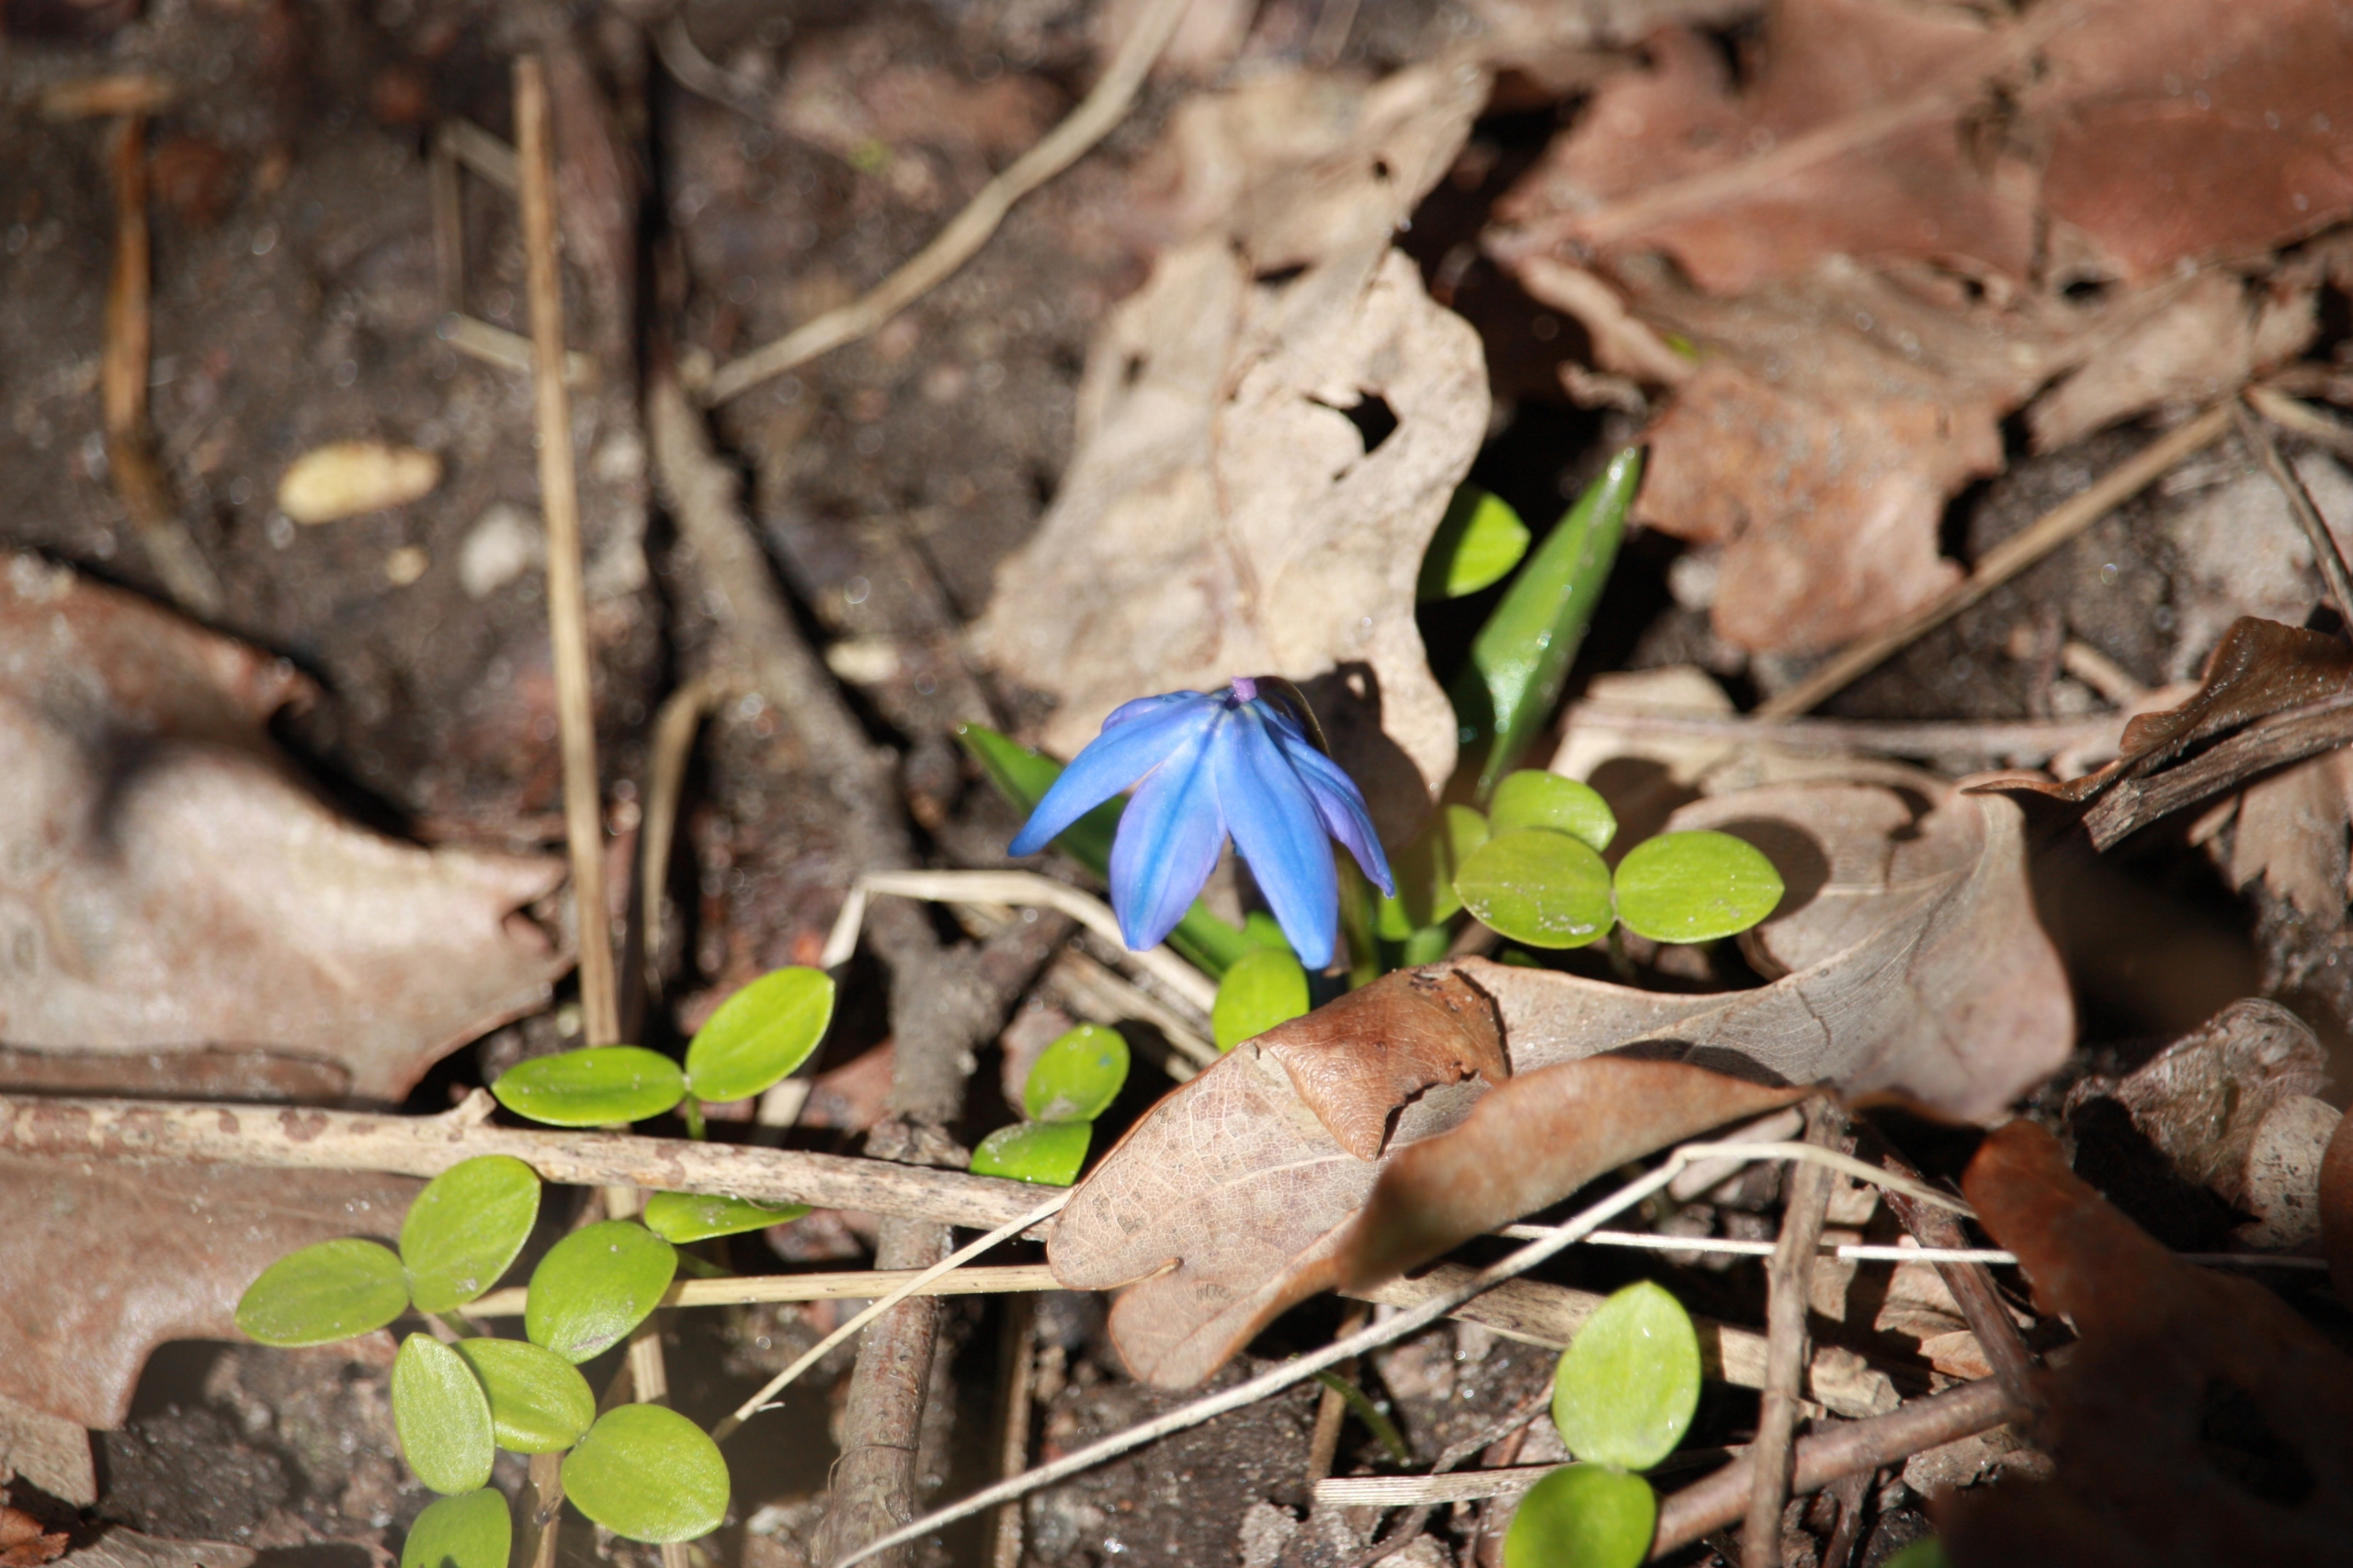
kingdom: Plantae
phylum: Tracheophyta
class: Liliopsida
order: Asparagales
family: Asparagaceae
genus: Scilla
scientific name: Scilla siberica
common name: Russisk skilla
